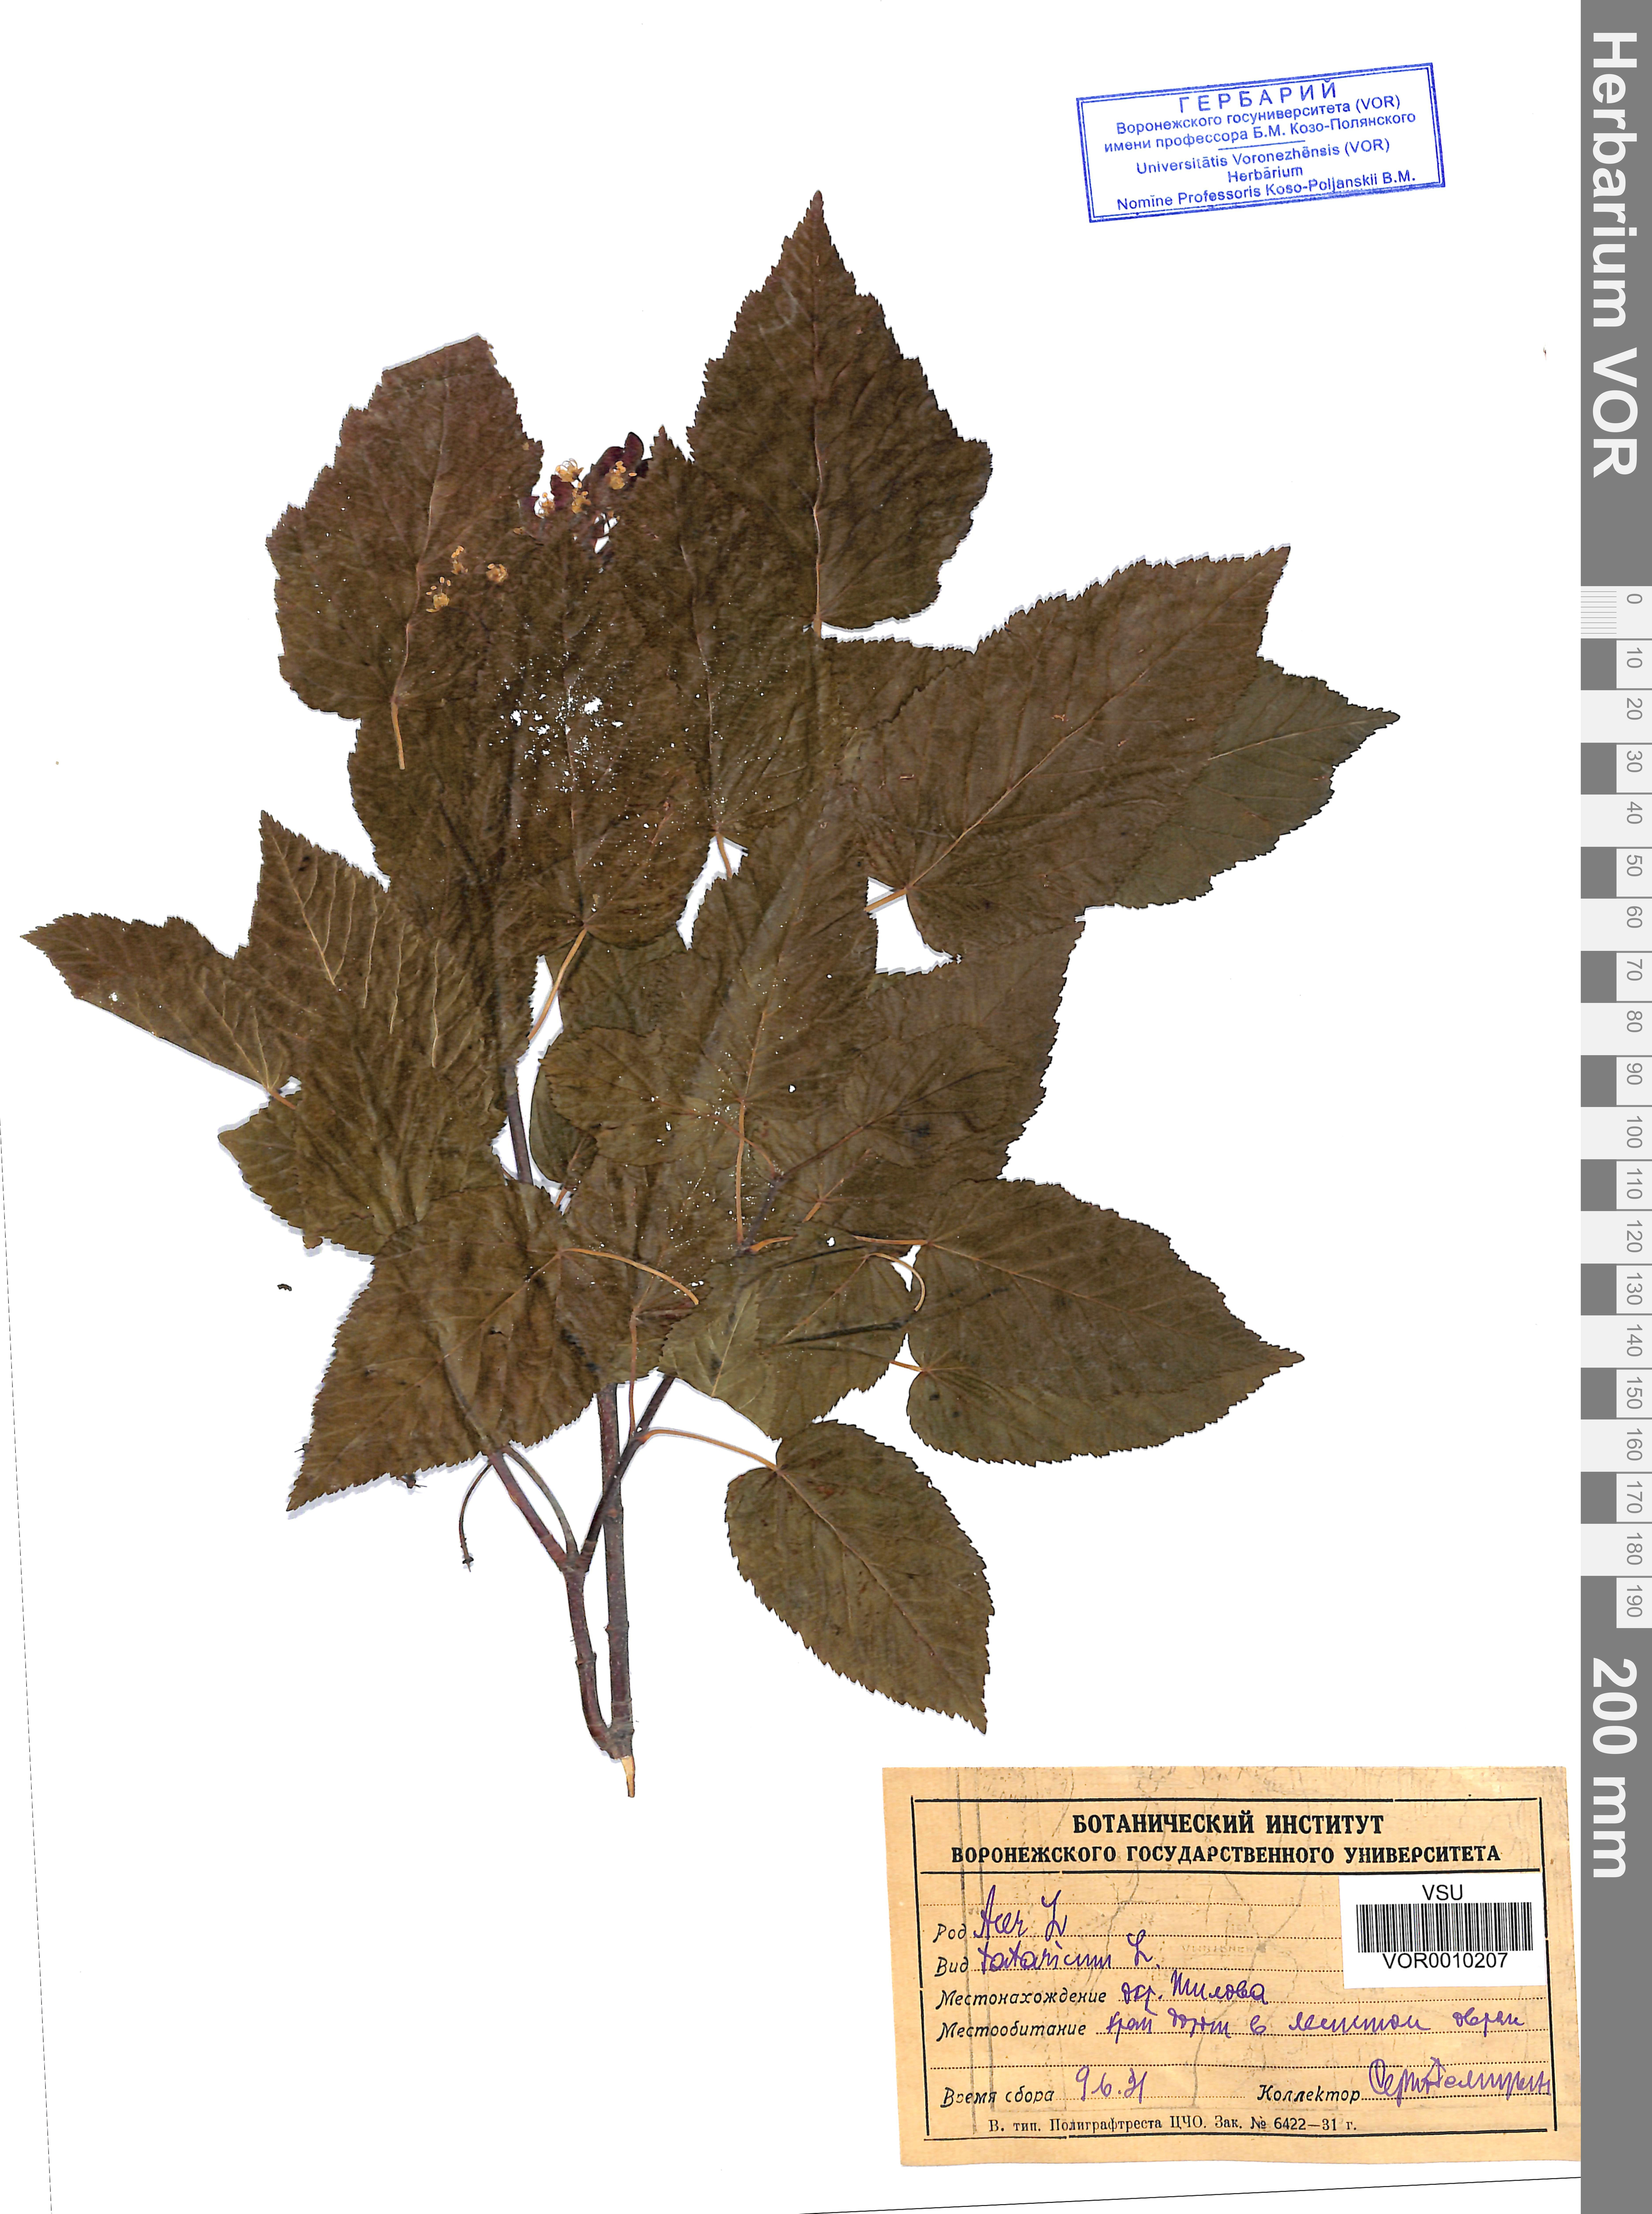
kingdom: Plantae
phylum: Tracheophyta
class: Magnoliopsida
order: Sapindales
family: Sapindaceae
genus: Acer
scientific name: Acer tataricum
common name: Tartar maple
